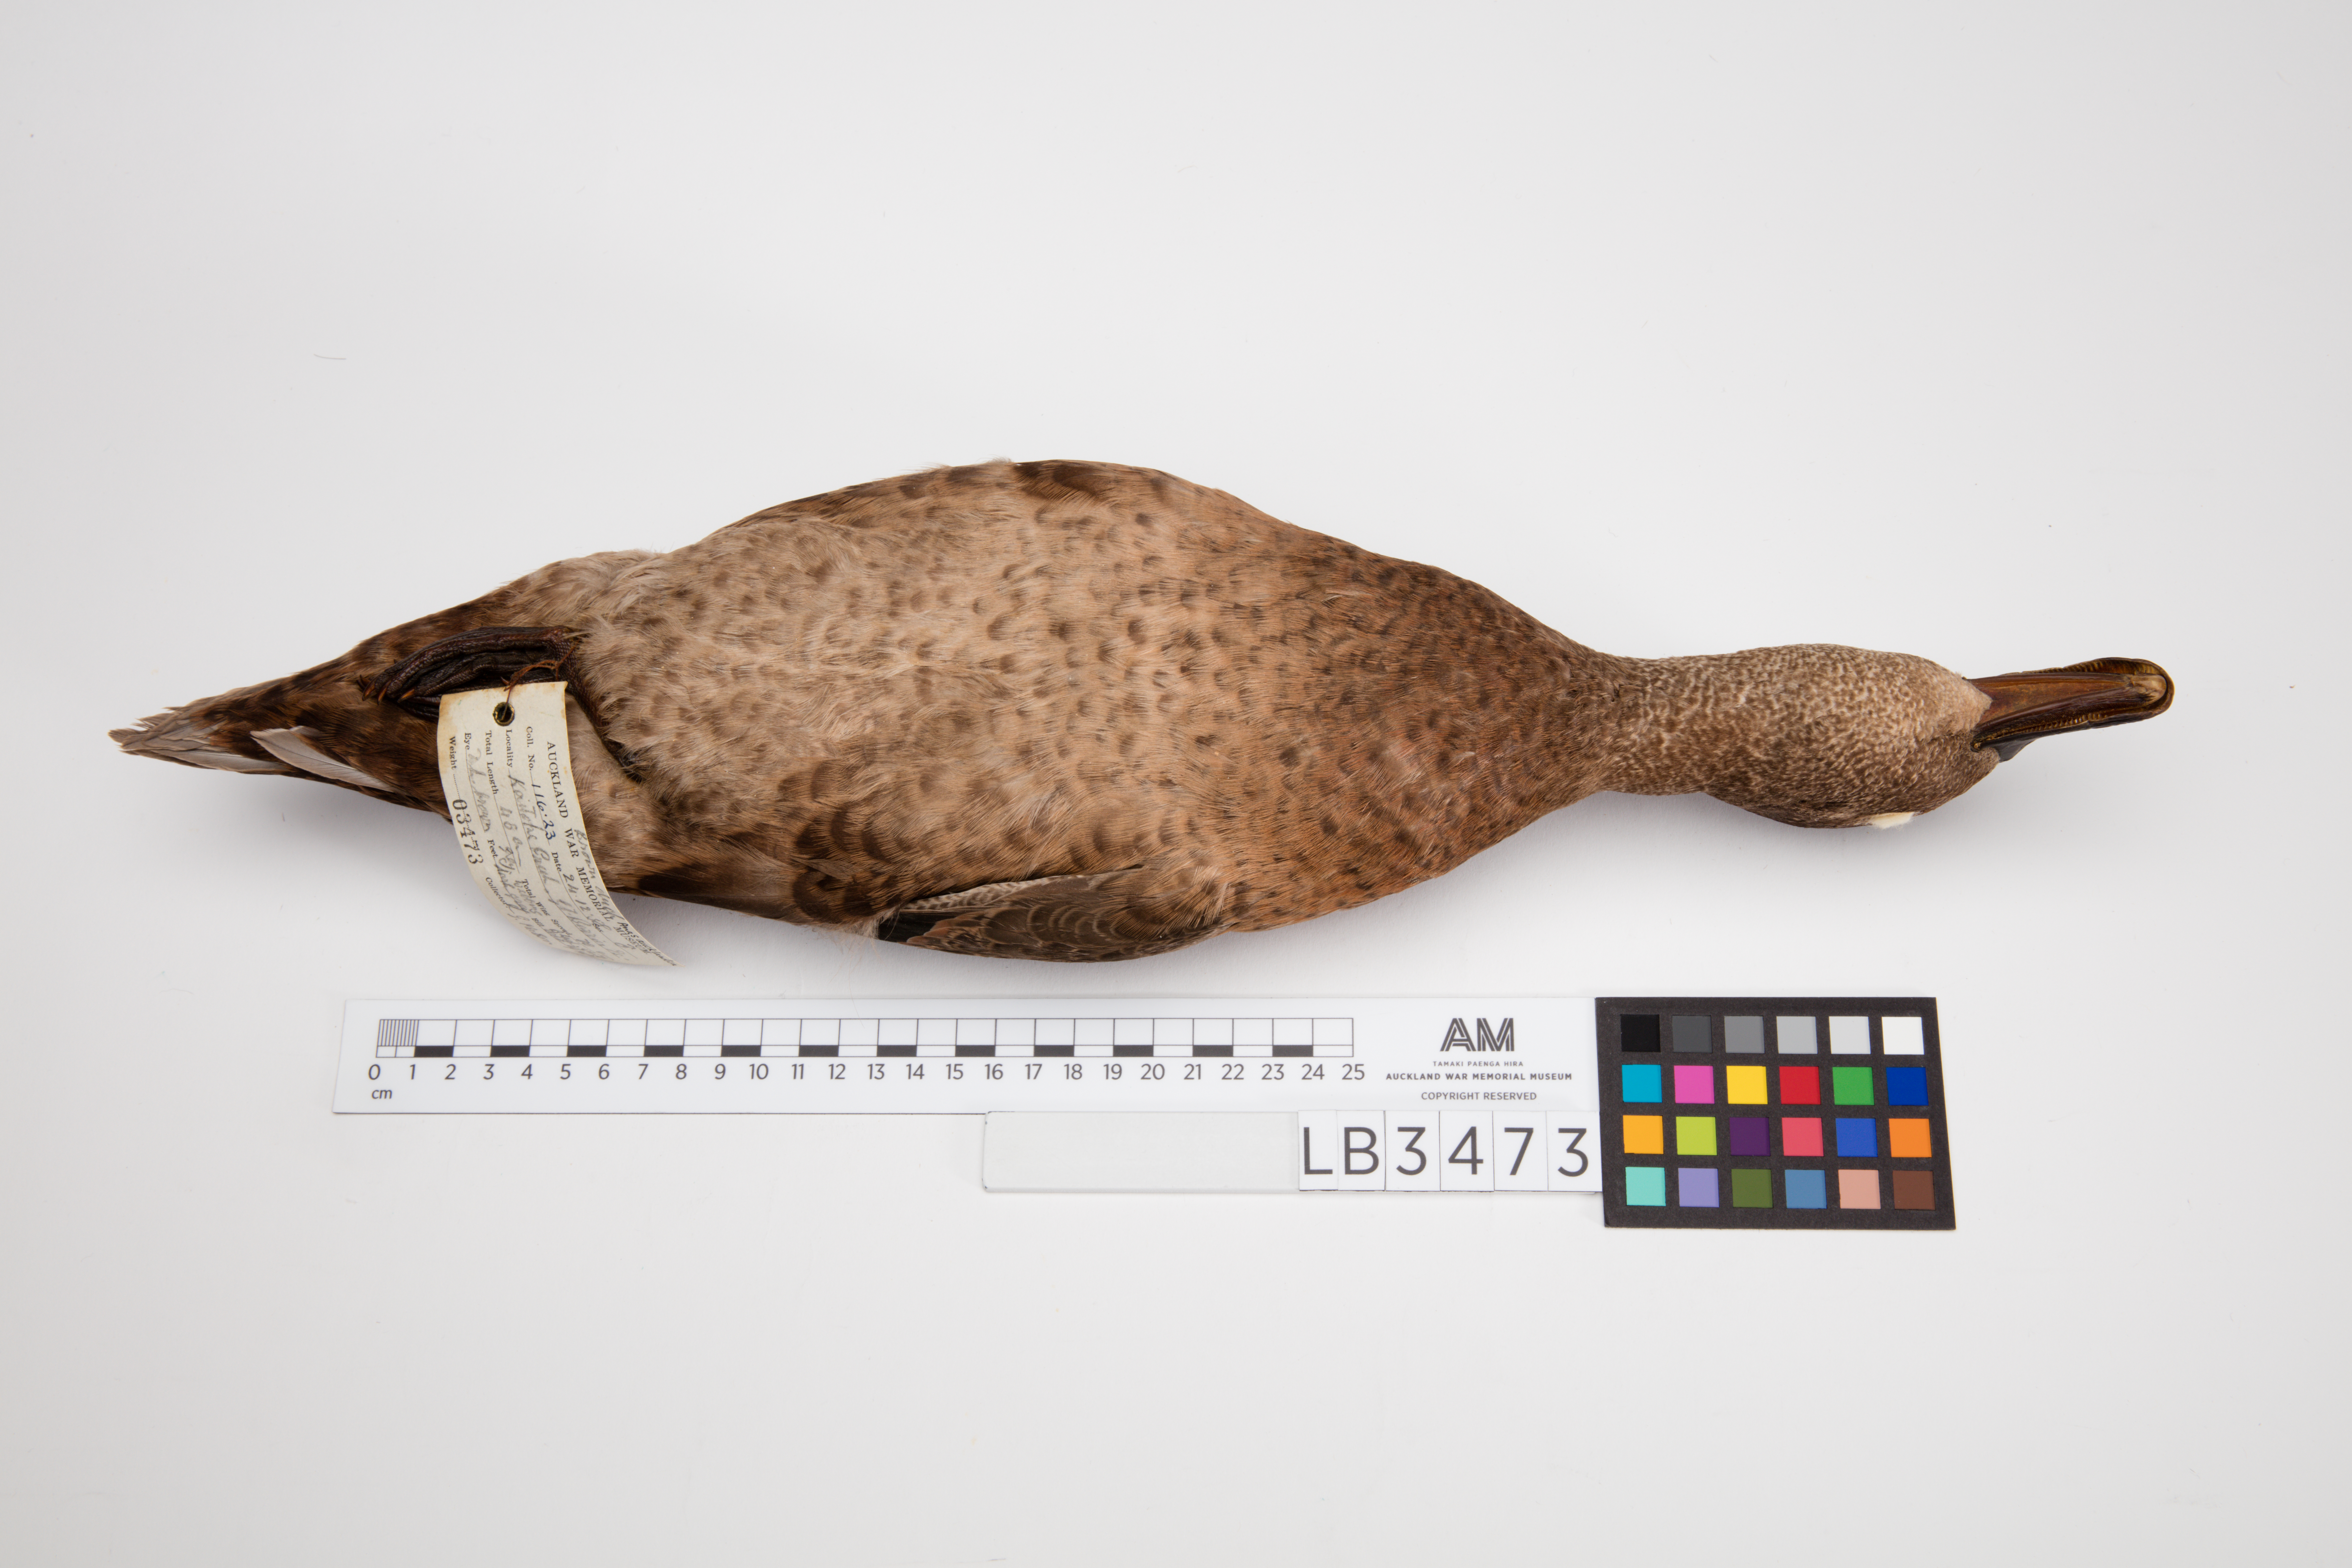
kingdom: Animalia
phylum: Chordata
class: Aves
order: Anseriformes
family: Anatidae
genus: Anas
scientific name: Anas chlorotis
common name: Brown teal
